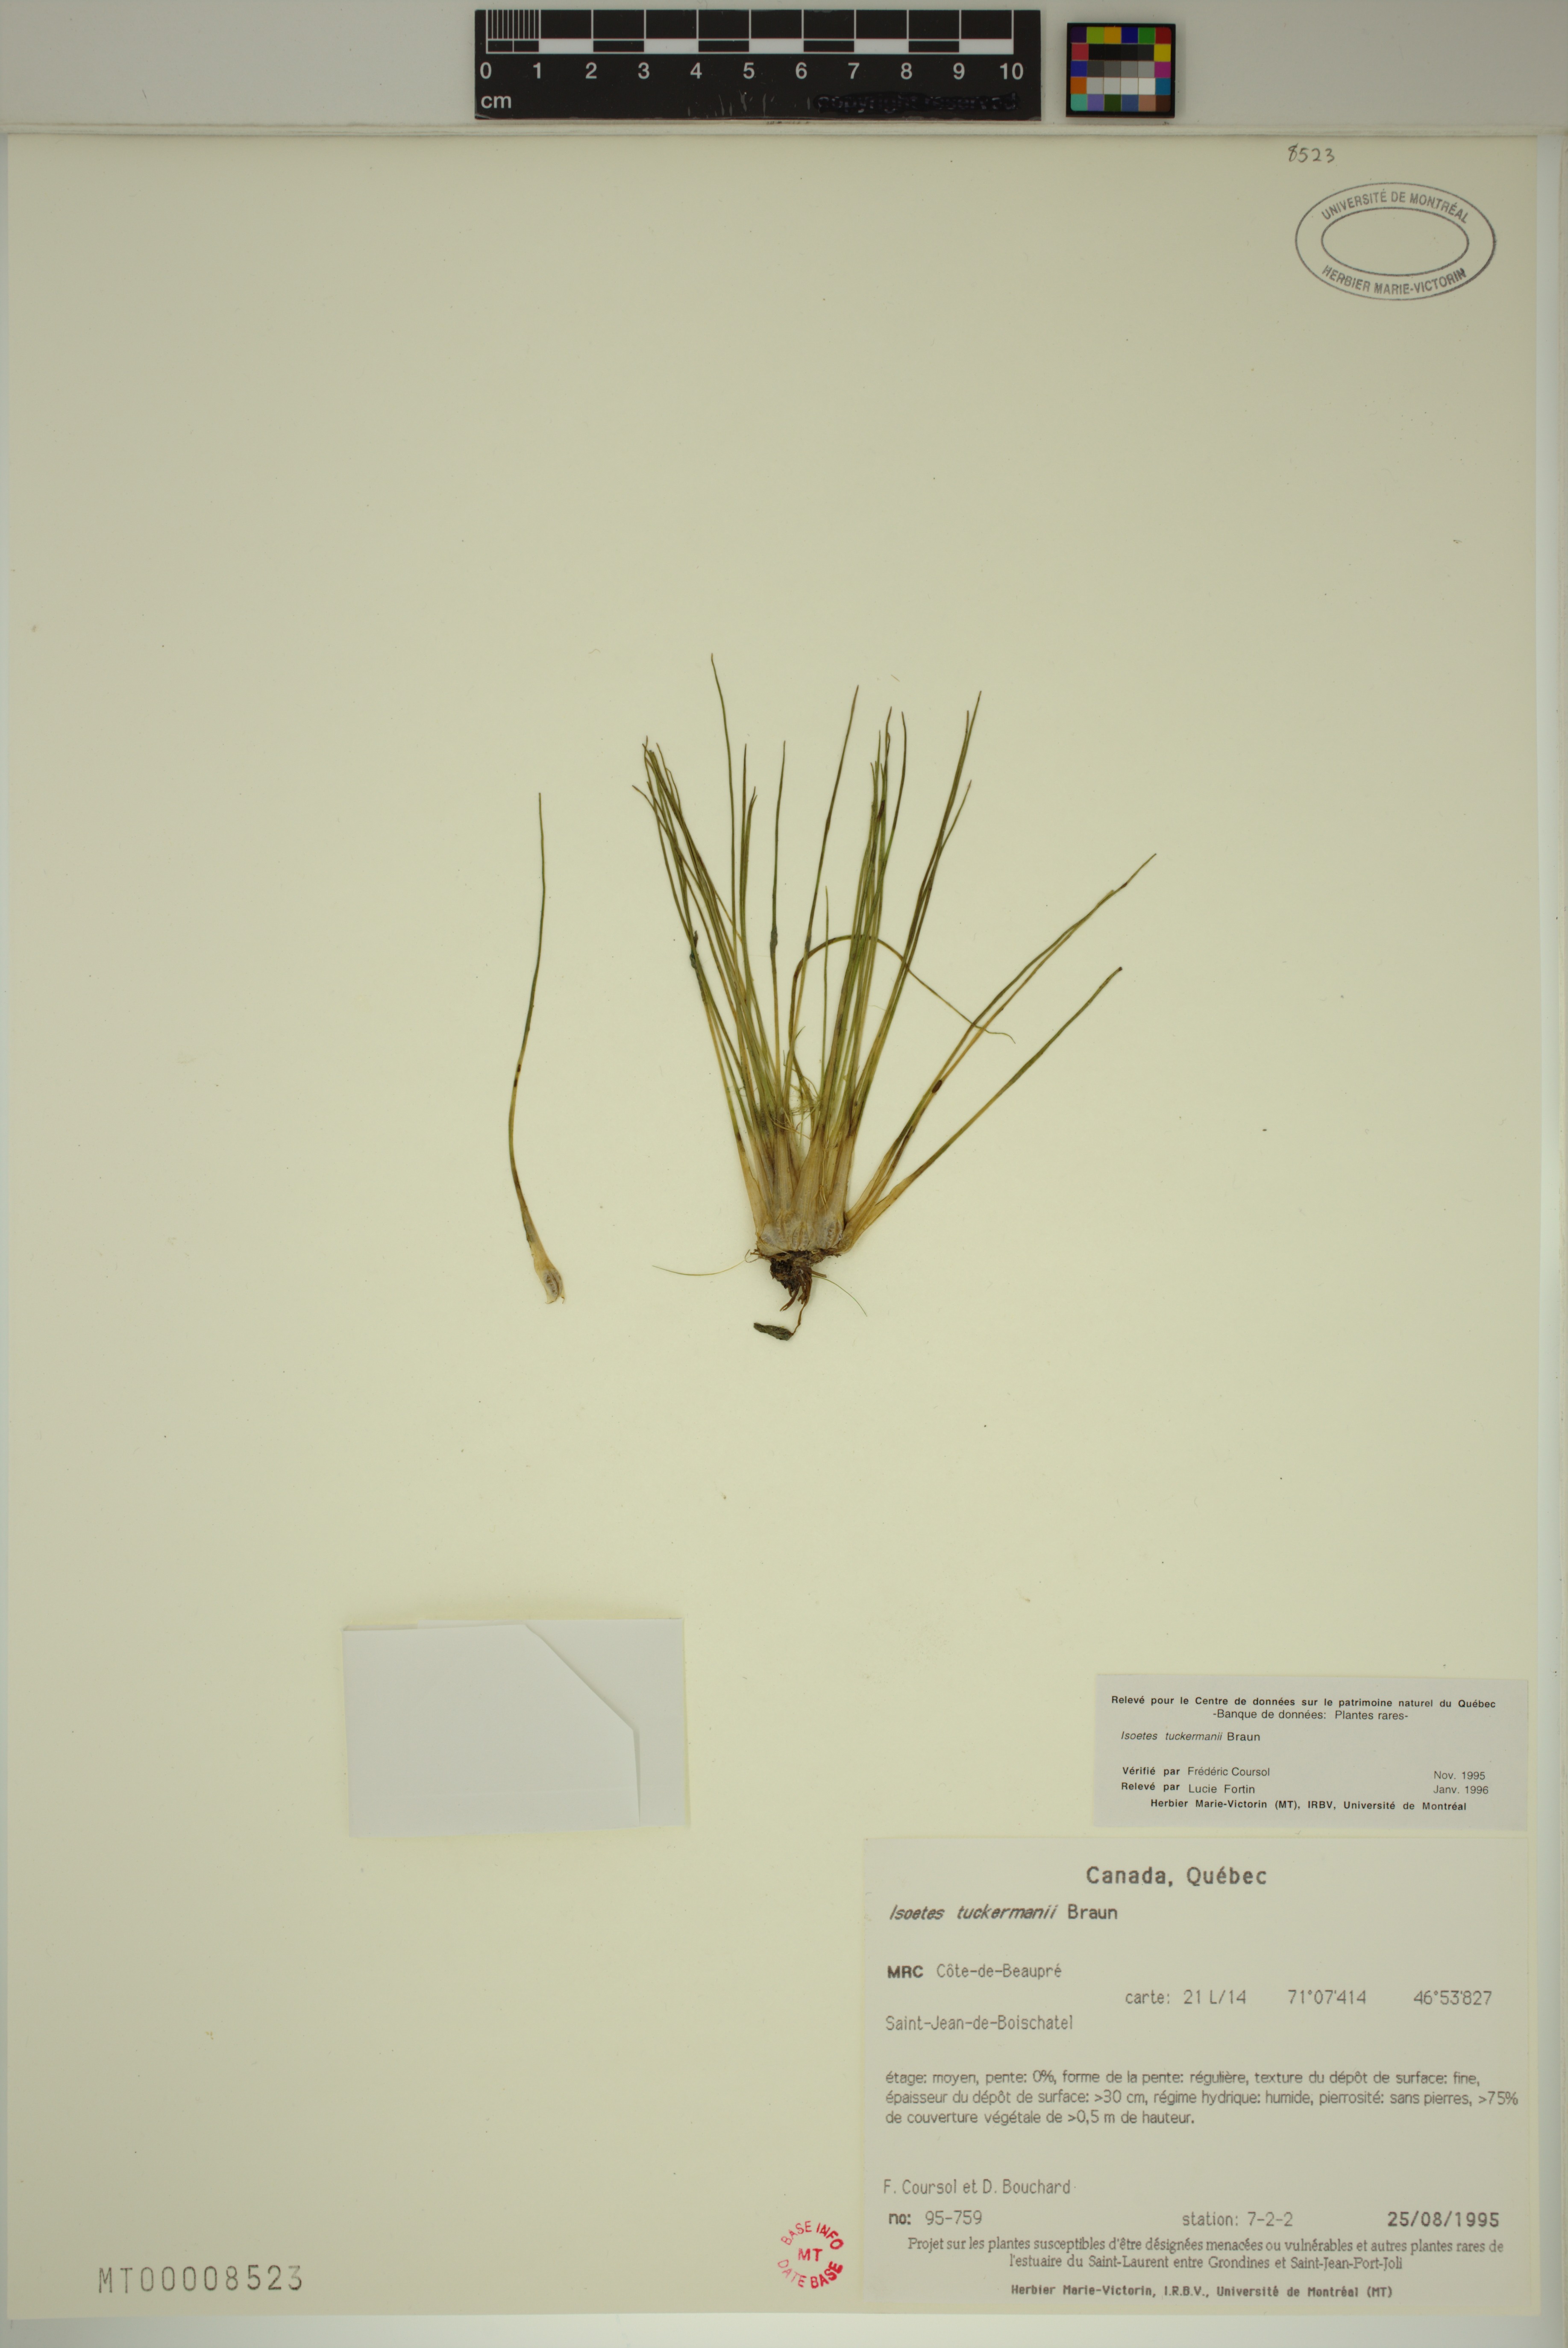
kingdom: Plantae
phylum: Tracheophyta
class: Lycopodiopsida
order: Isoetales
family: Isoetaceae
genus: Isoetes
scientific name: Isoetes laurentiana
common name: St. lawrence quillwort
